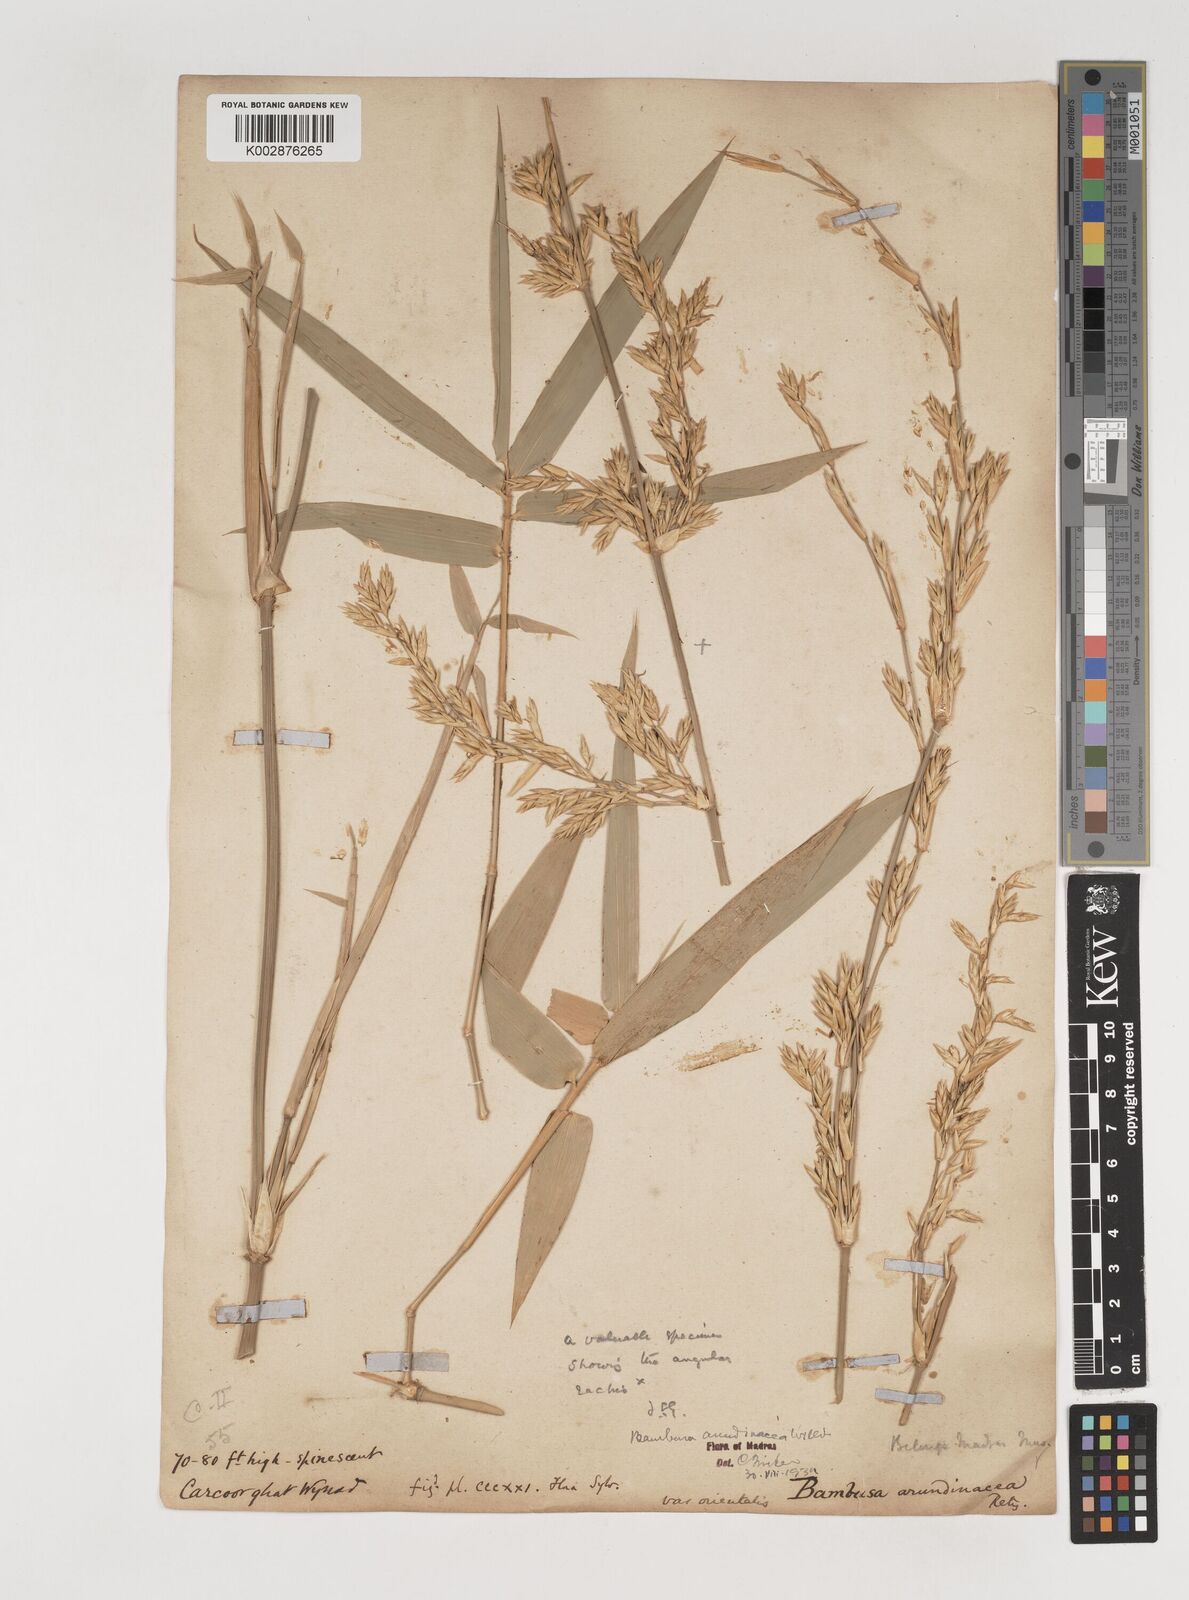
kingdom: Plantae
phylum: Tracheophyta
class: Liliopsida
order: Poales
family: Poaceae
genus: Bambusa
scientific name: Bambusa bambos
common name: Indian thorny bamboo
